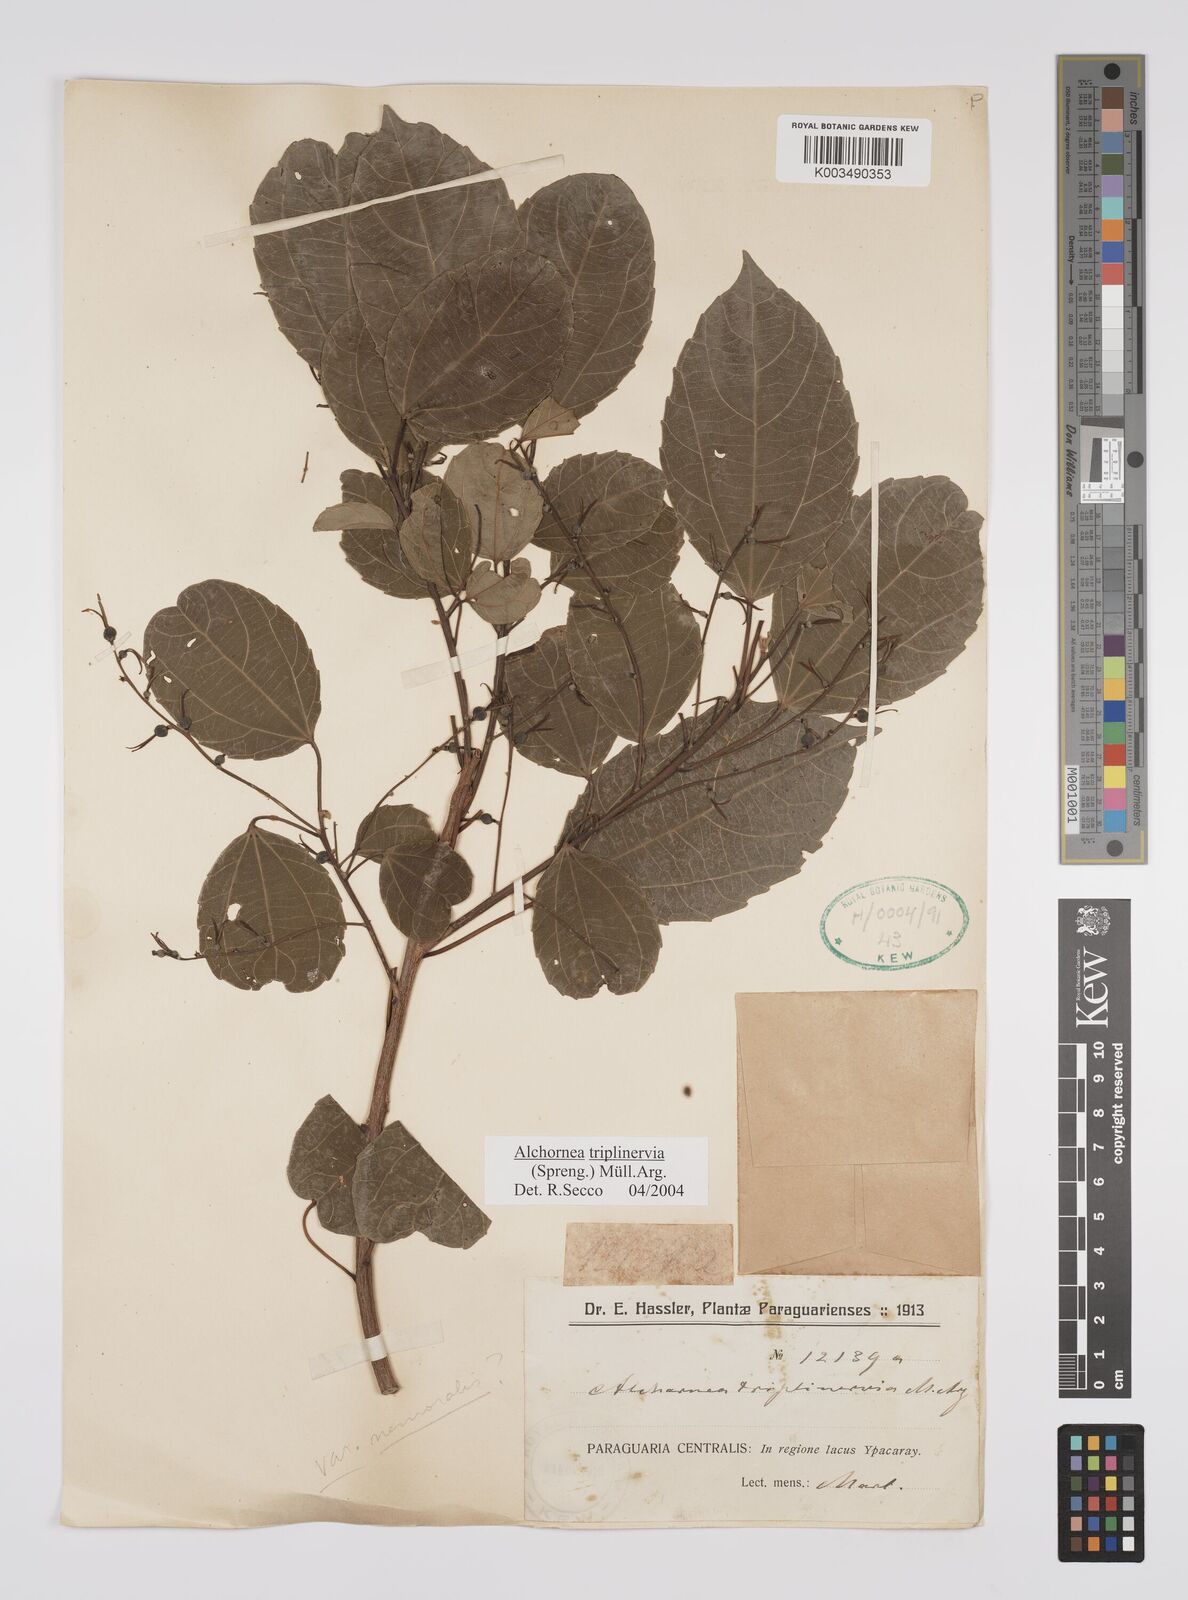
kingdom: Plantae
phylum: Tracheophyta
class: Magnoliopsida
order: Malpighiales
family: Euphorbiaceae
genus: Alchornea
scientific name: Alchornea triplinervia
